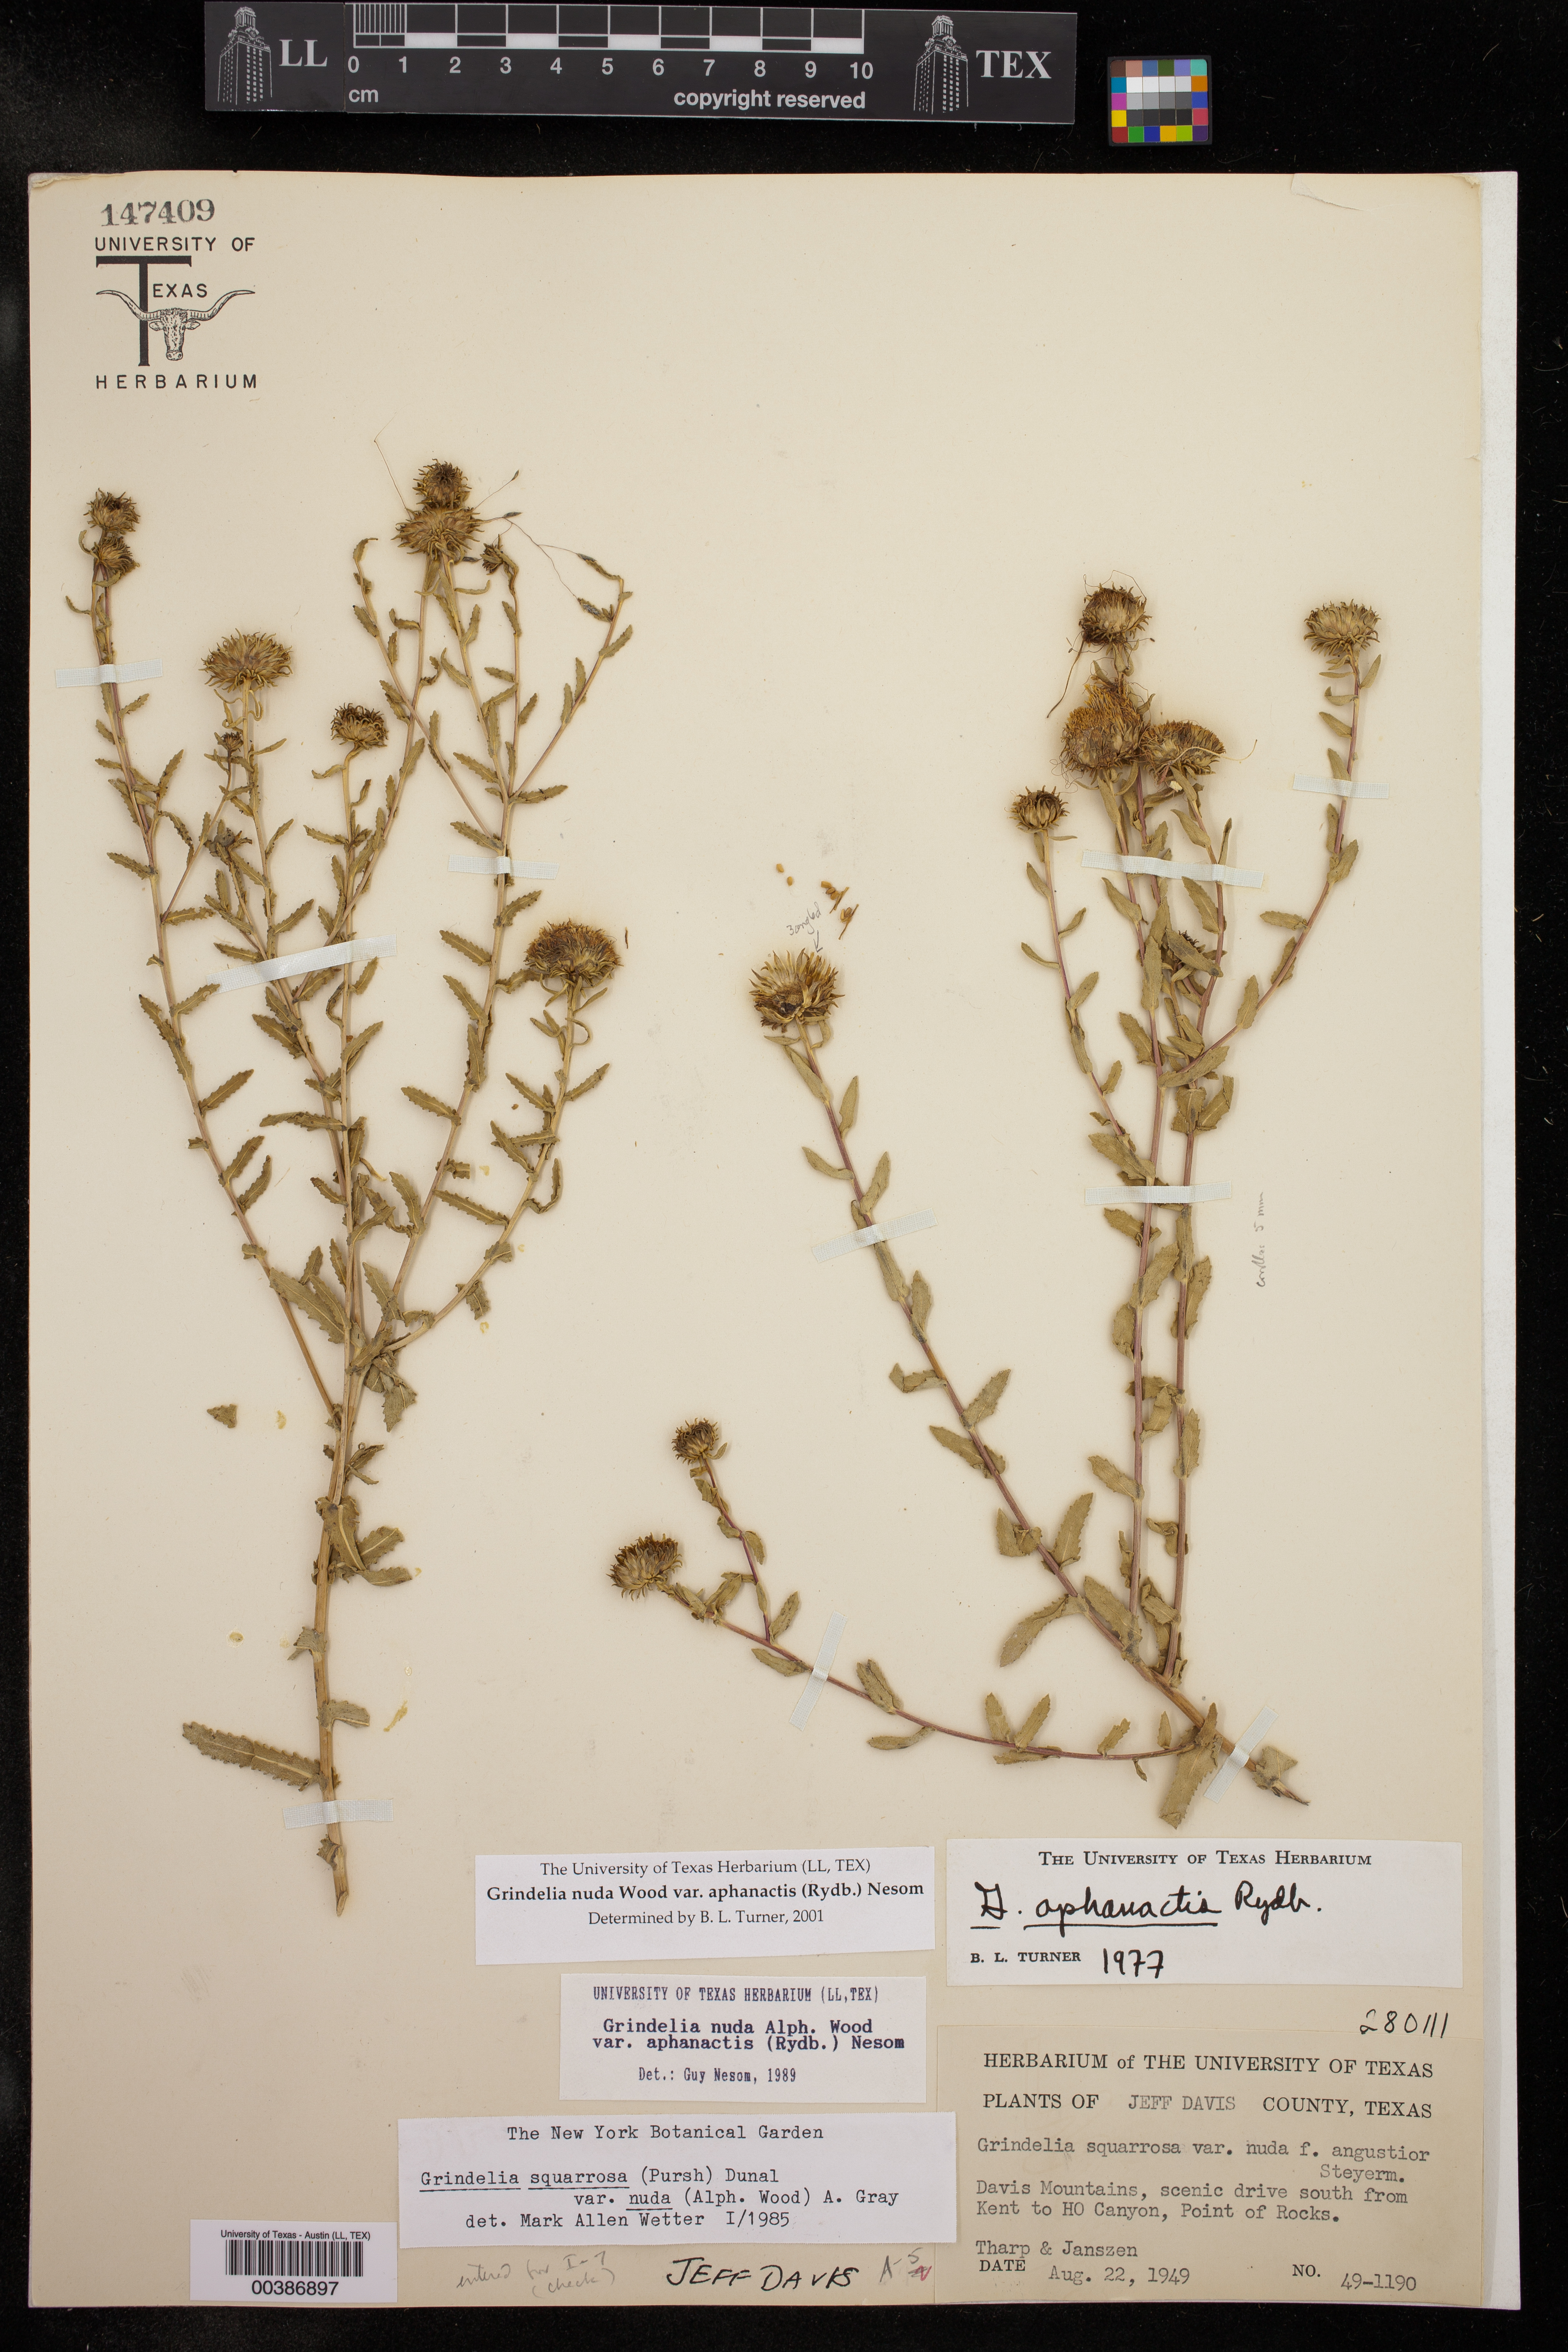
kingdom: Plantae
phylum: Tracheophyta
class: Magnoliopsida
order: Asterales
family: Asteraceae
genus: Grindelia
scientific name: Grindelia nuda
